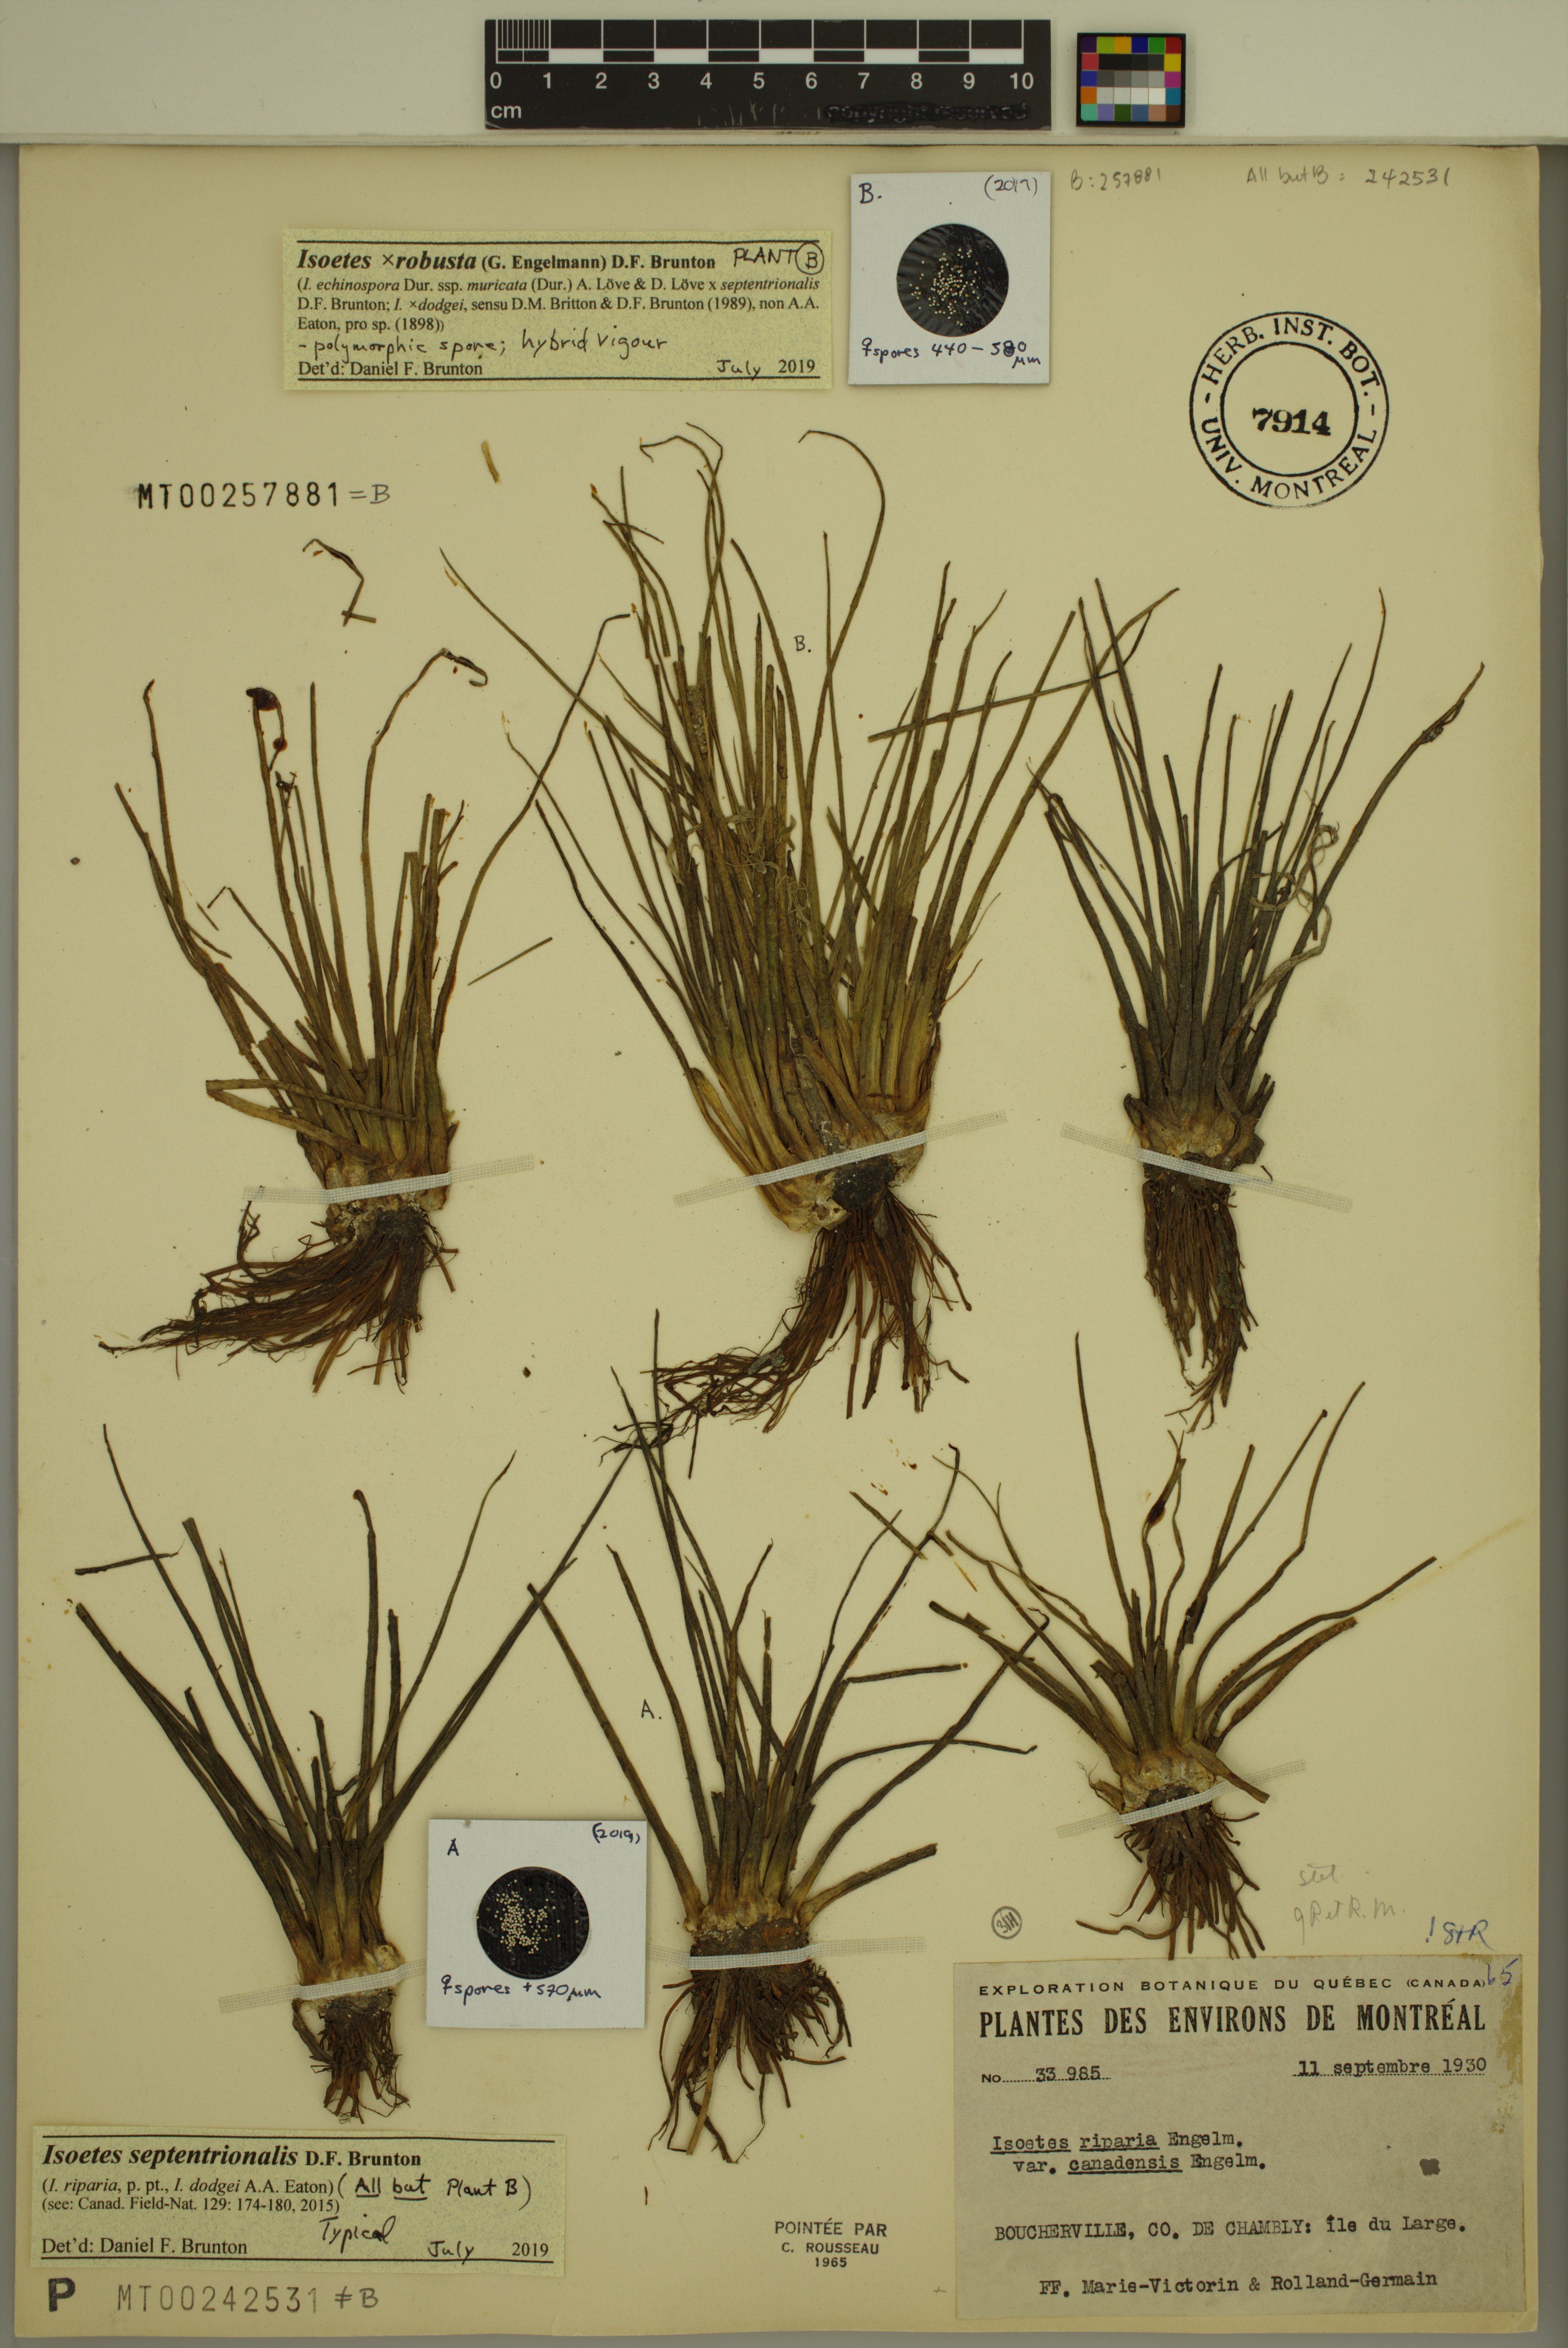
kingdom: Plantae
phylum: Tracheophyta
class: Lycopodiopsida
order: Isoetales
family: Isoetaceae
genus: Isoetes
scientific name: Isoetes robusta
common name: Robust quillwort
